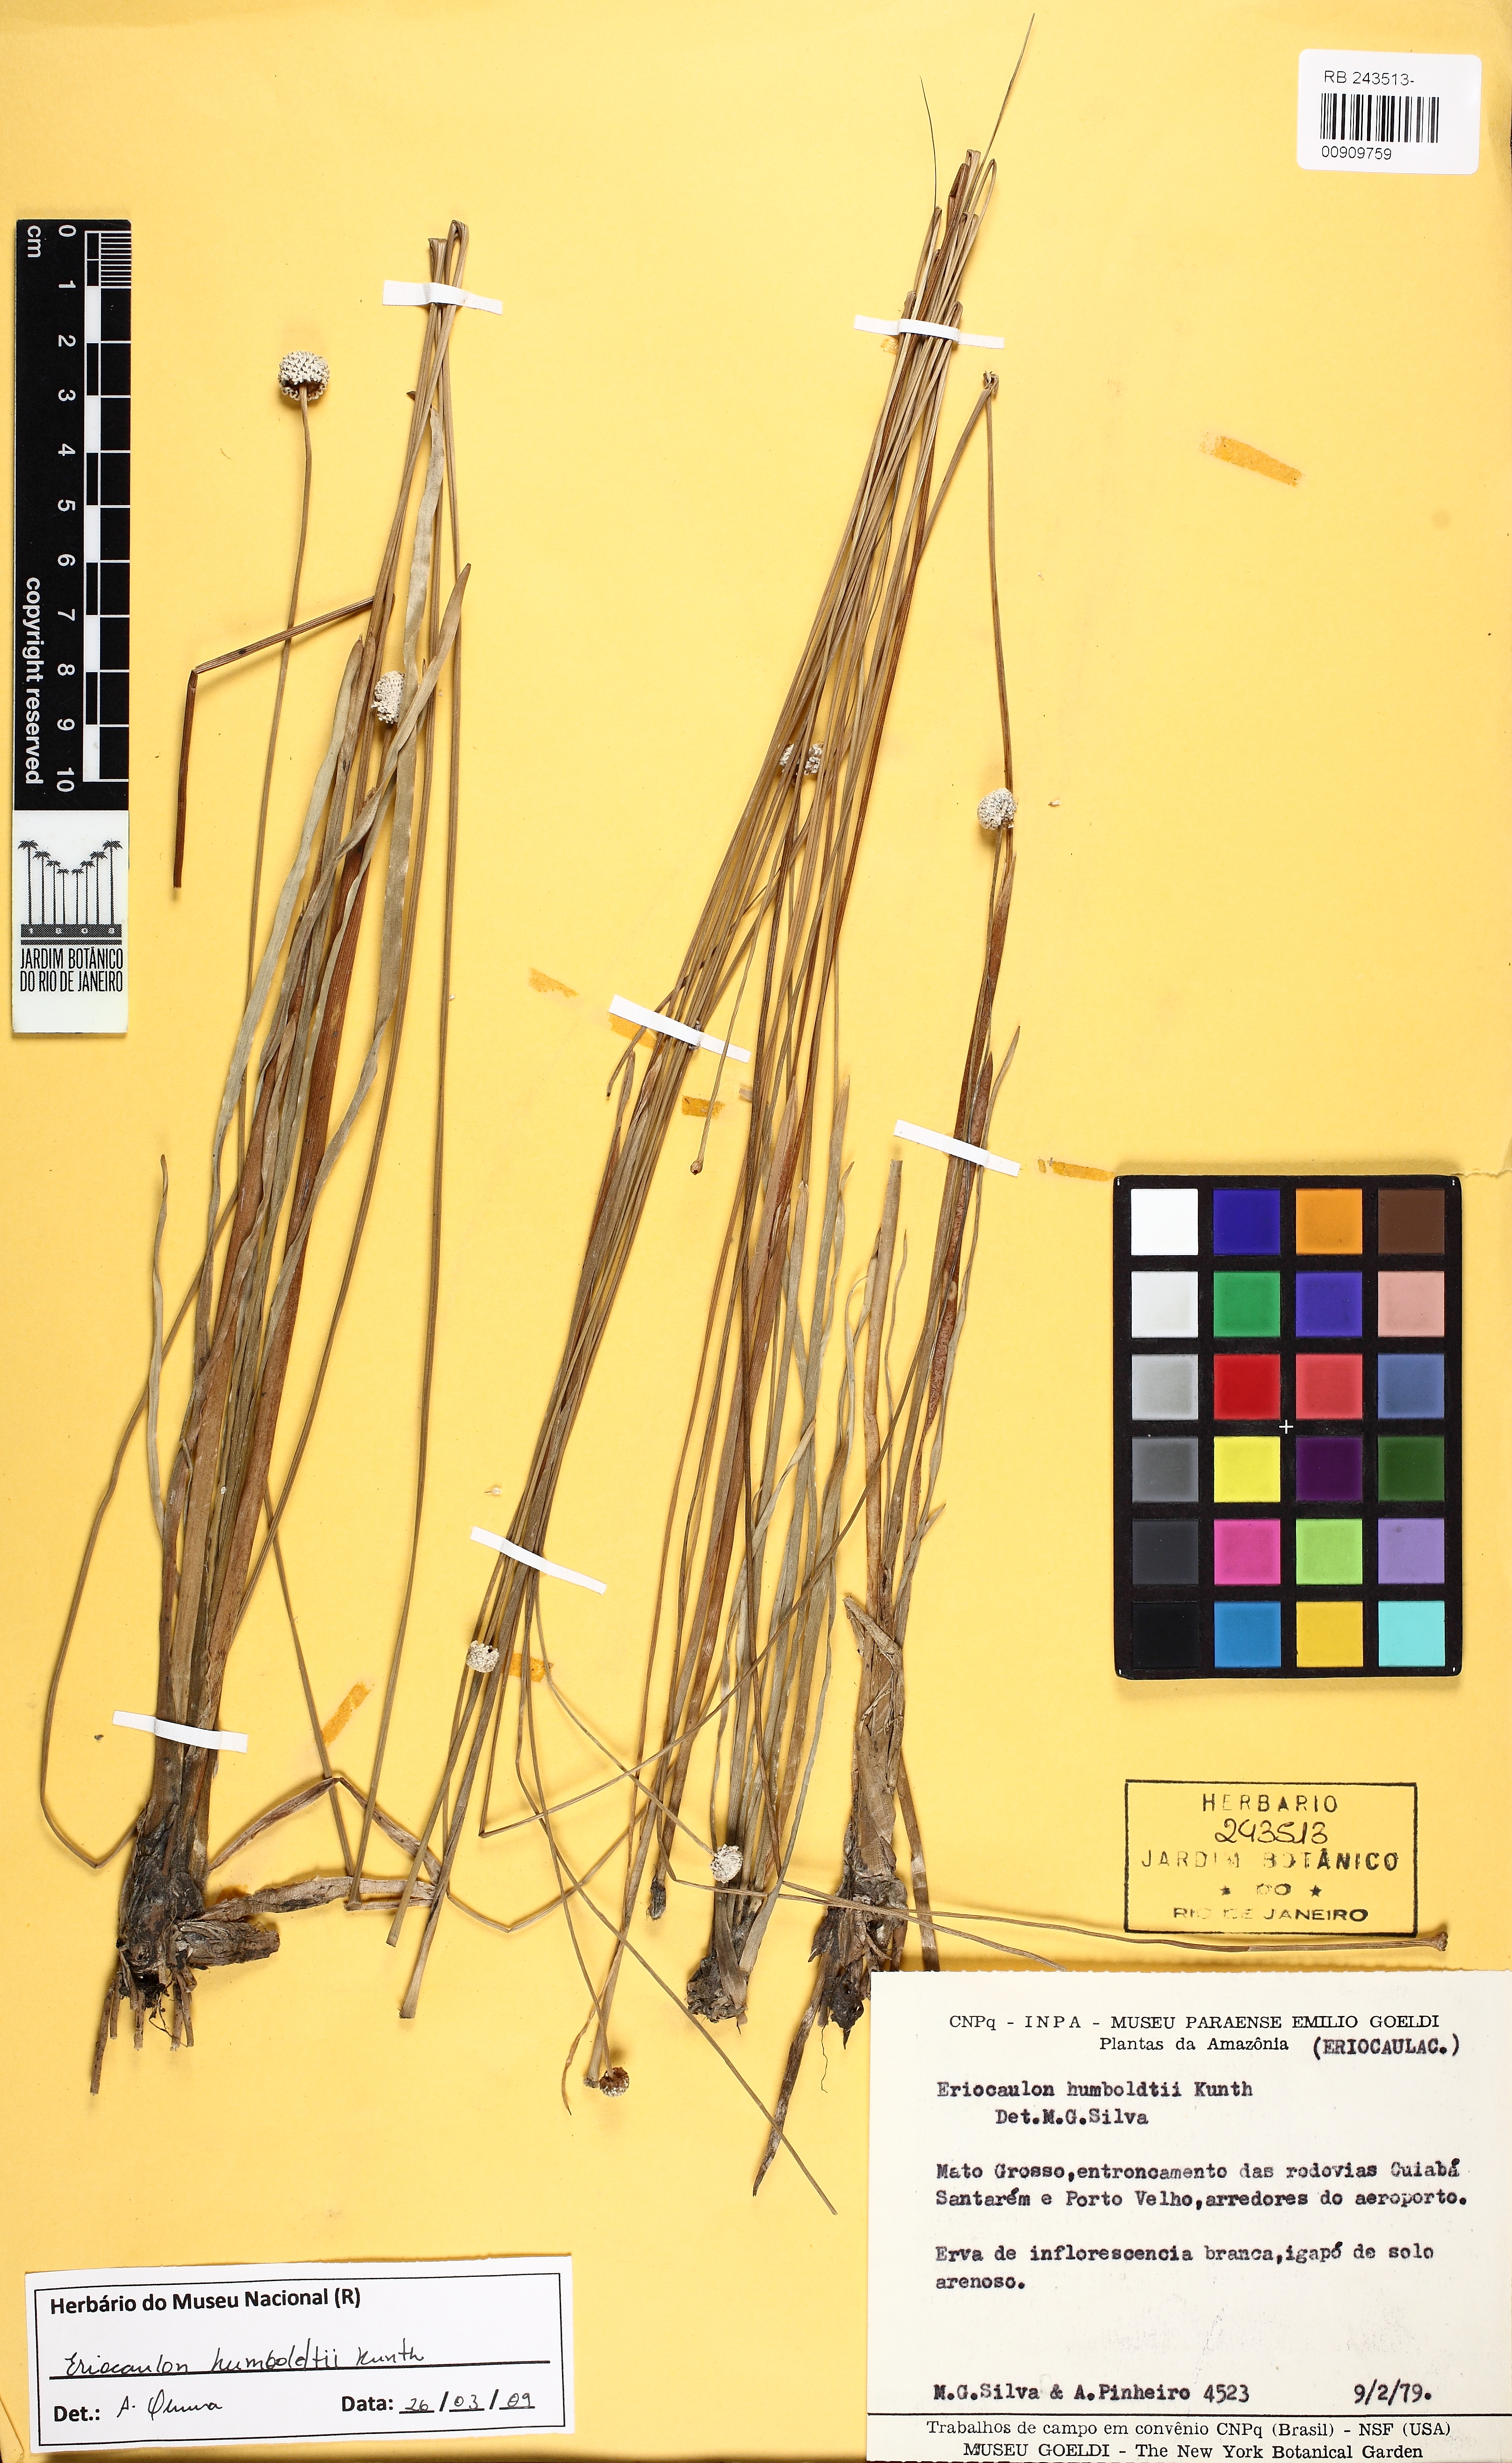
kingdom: Plantae
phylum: Tracheophyta
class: Liliopsida
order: Poales
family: Eriocaulaceae
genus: Eriocaulon
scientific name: Eriocaulon humboldtii
